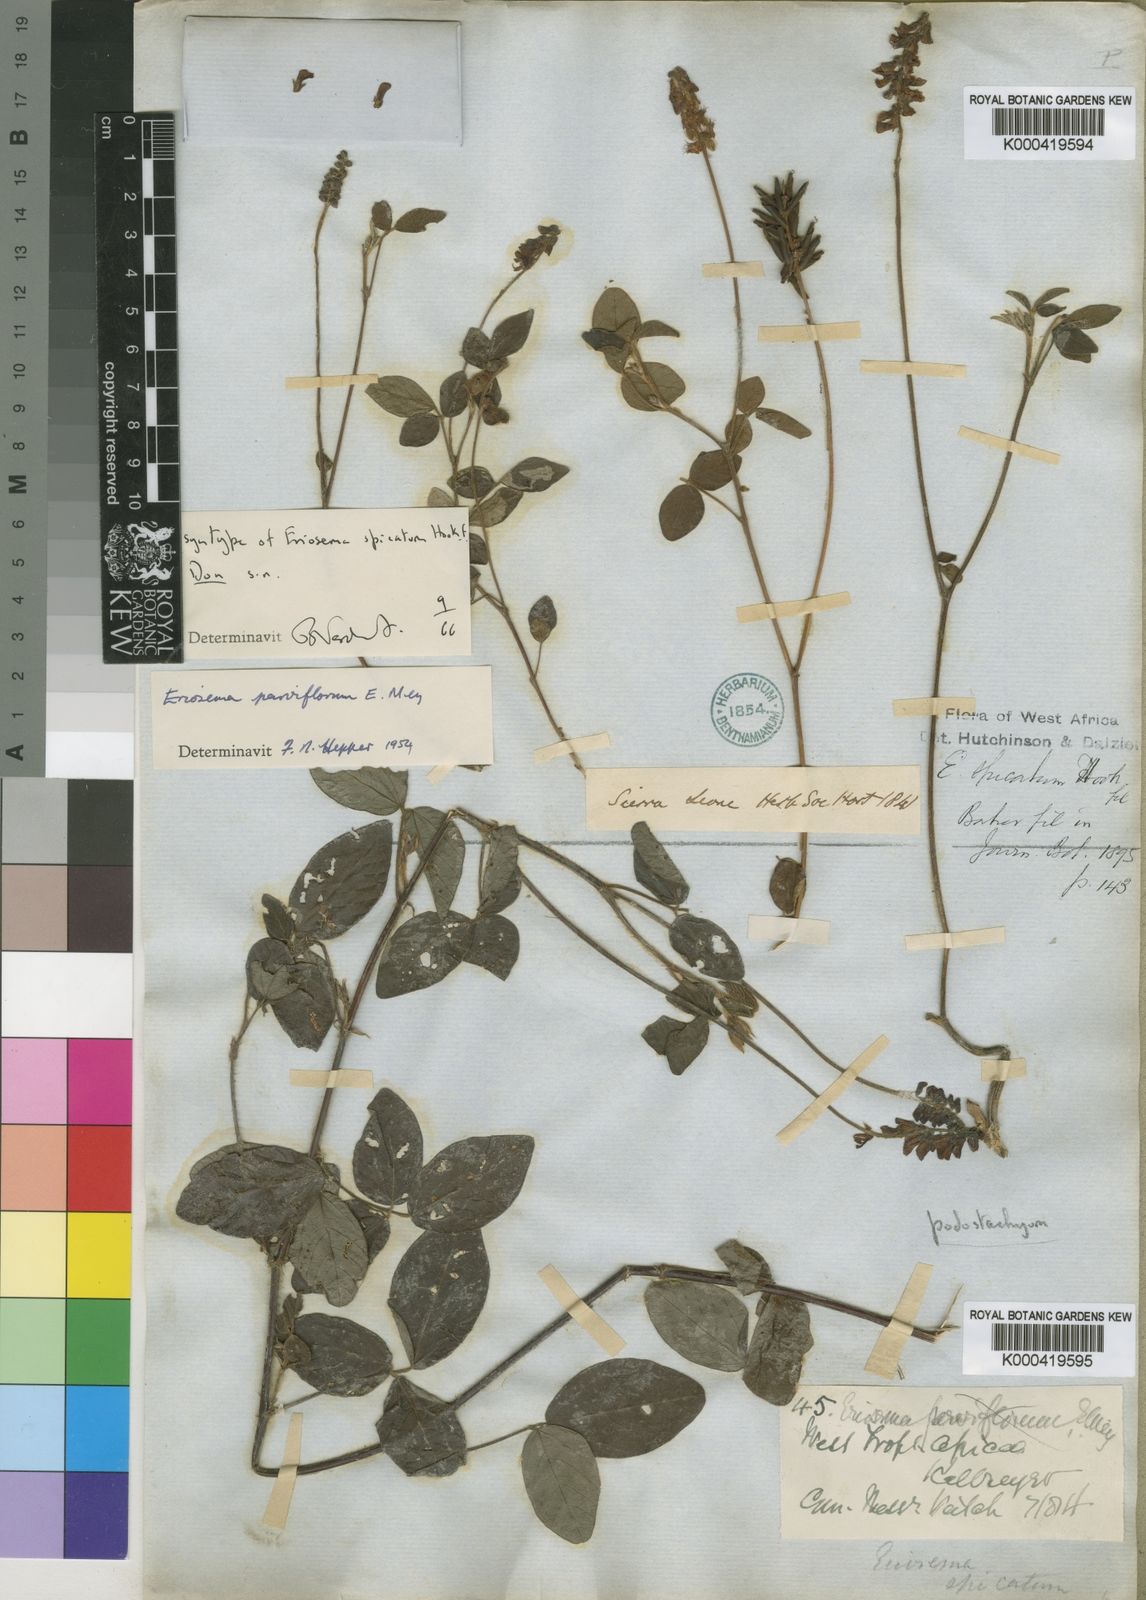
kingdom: Plantae
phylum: Tracheophyta
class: Magnoliopsida
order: Fabales
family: Fabaceae
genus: Eriosema
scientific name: Eriosema parviflorum
